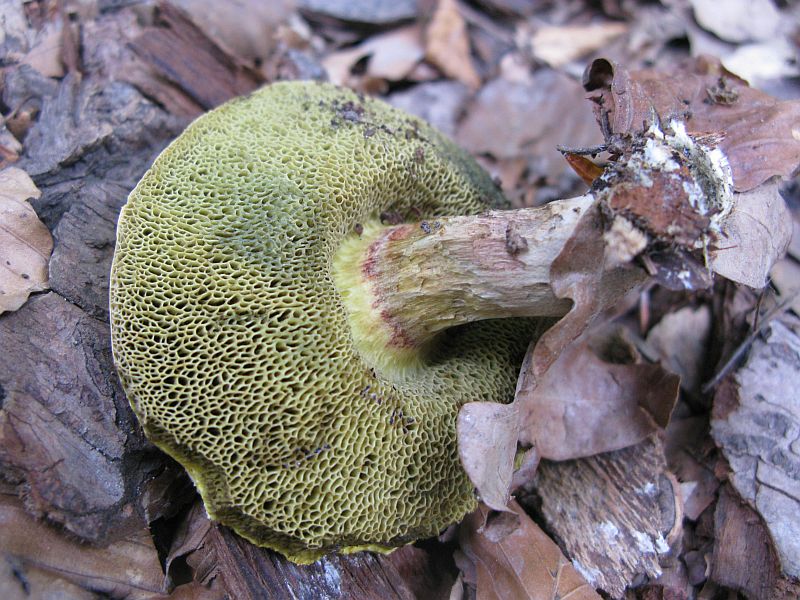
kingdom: Fungi
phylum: Basidiomycota
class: Agaricomycetes
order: Boletales
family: Boletaceae
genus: Xerocomellus
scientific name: Xerocomellus porosporus
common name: hvidsprukken rørhat
